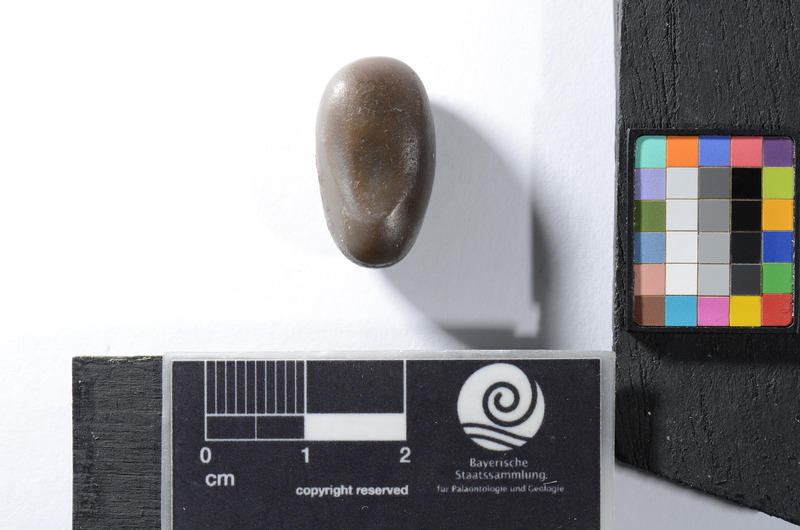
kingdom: Animalia
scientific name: Animalia
